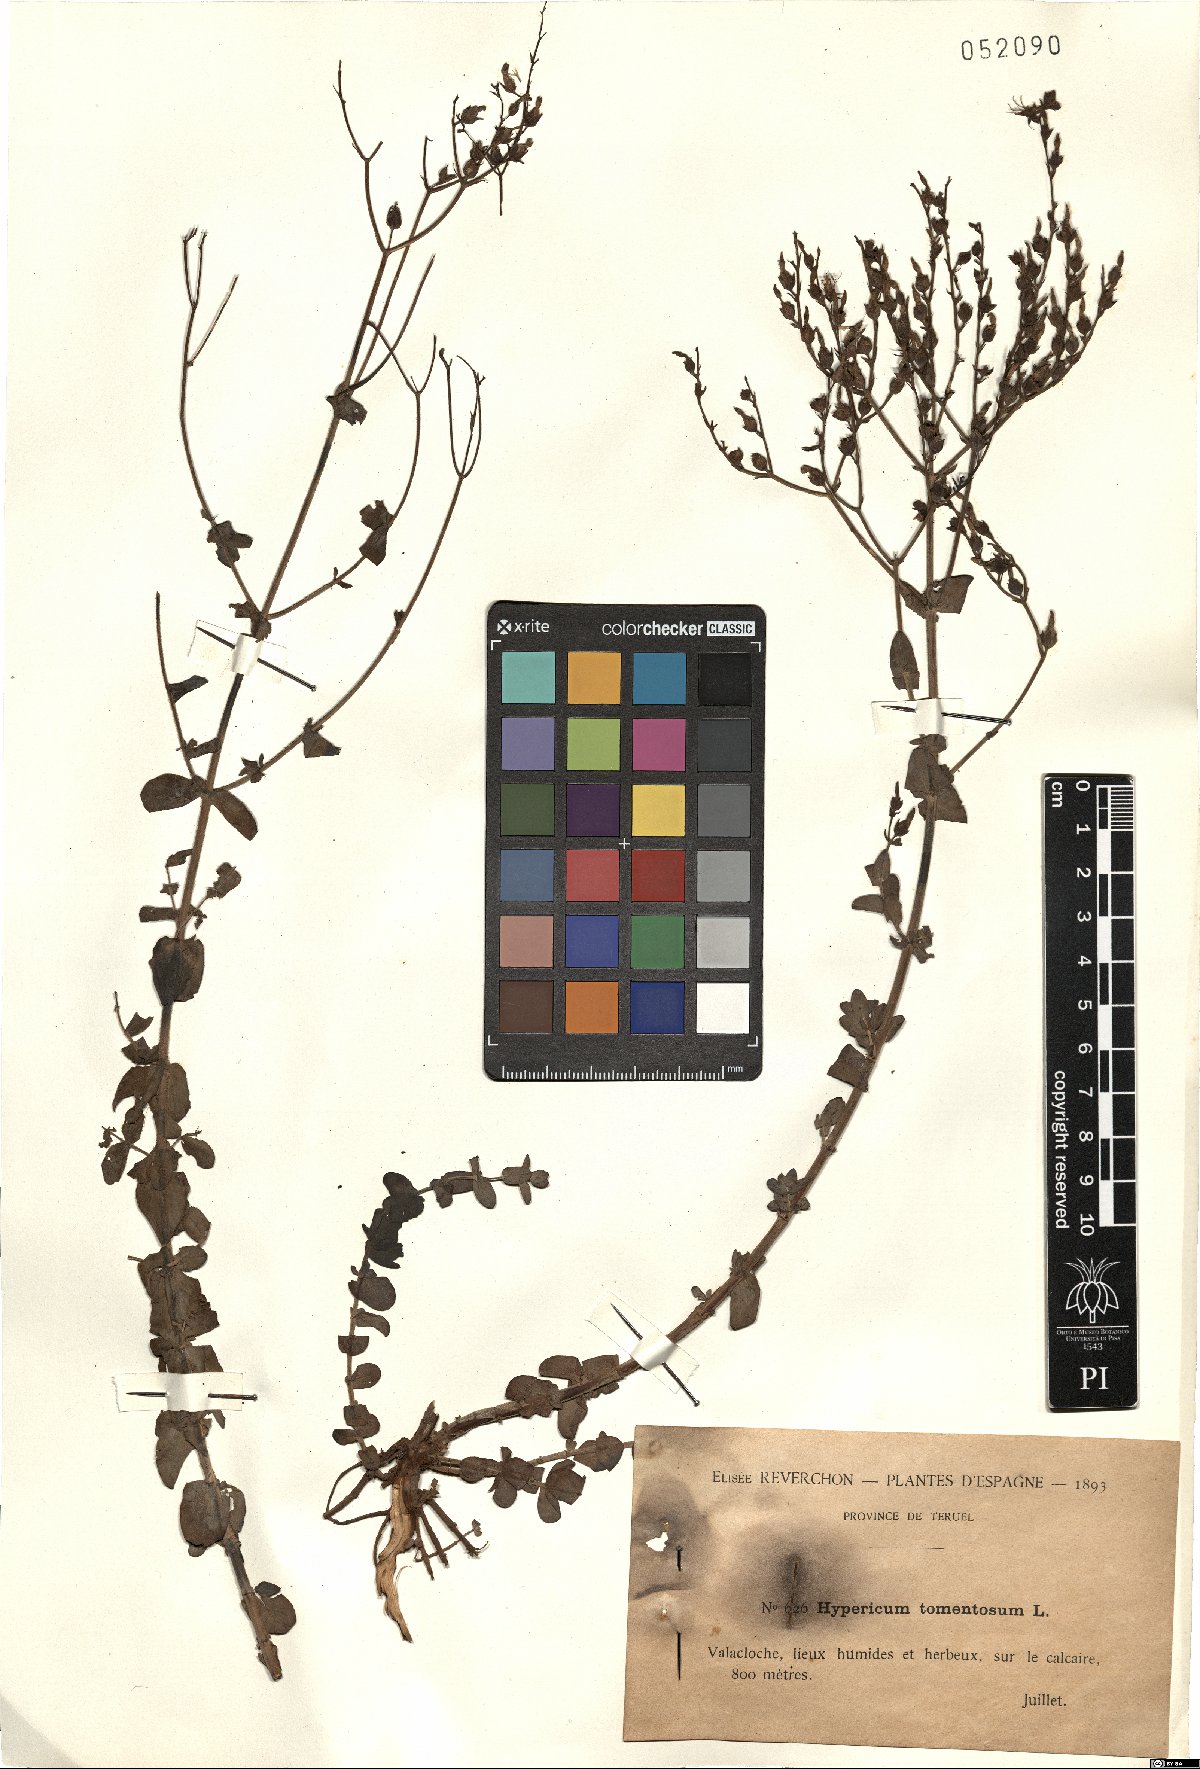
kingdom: Plantae
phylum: Tracheophyta
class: Magnoliopsida
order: Malpighiales
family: Hypericaceae
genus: Hypericum
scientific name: Hypericum tomentosum
